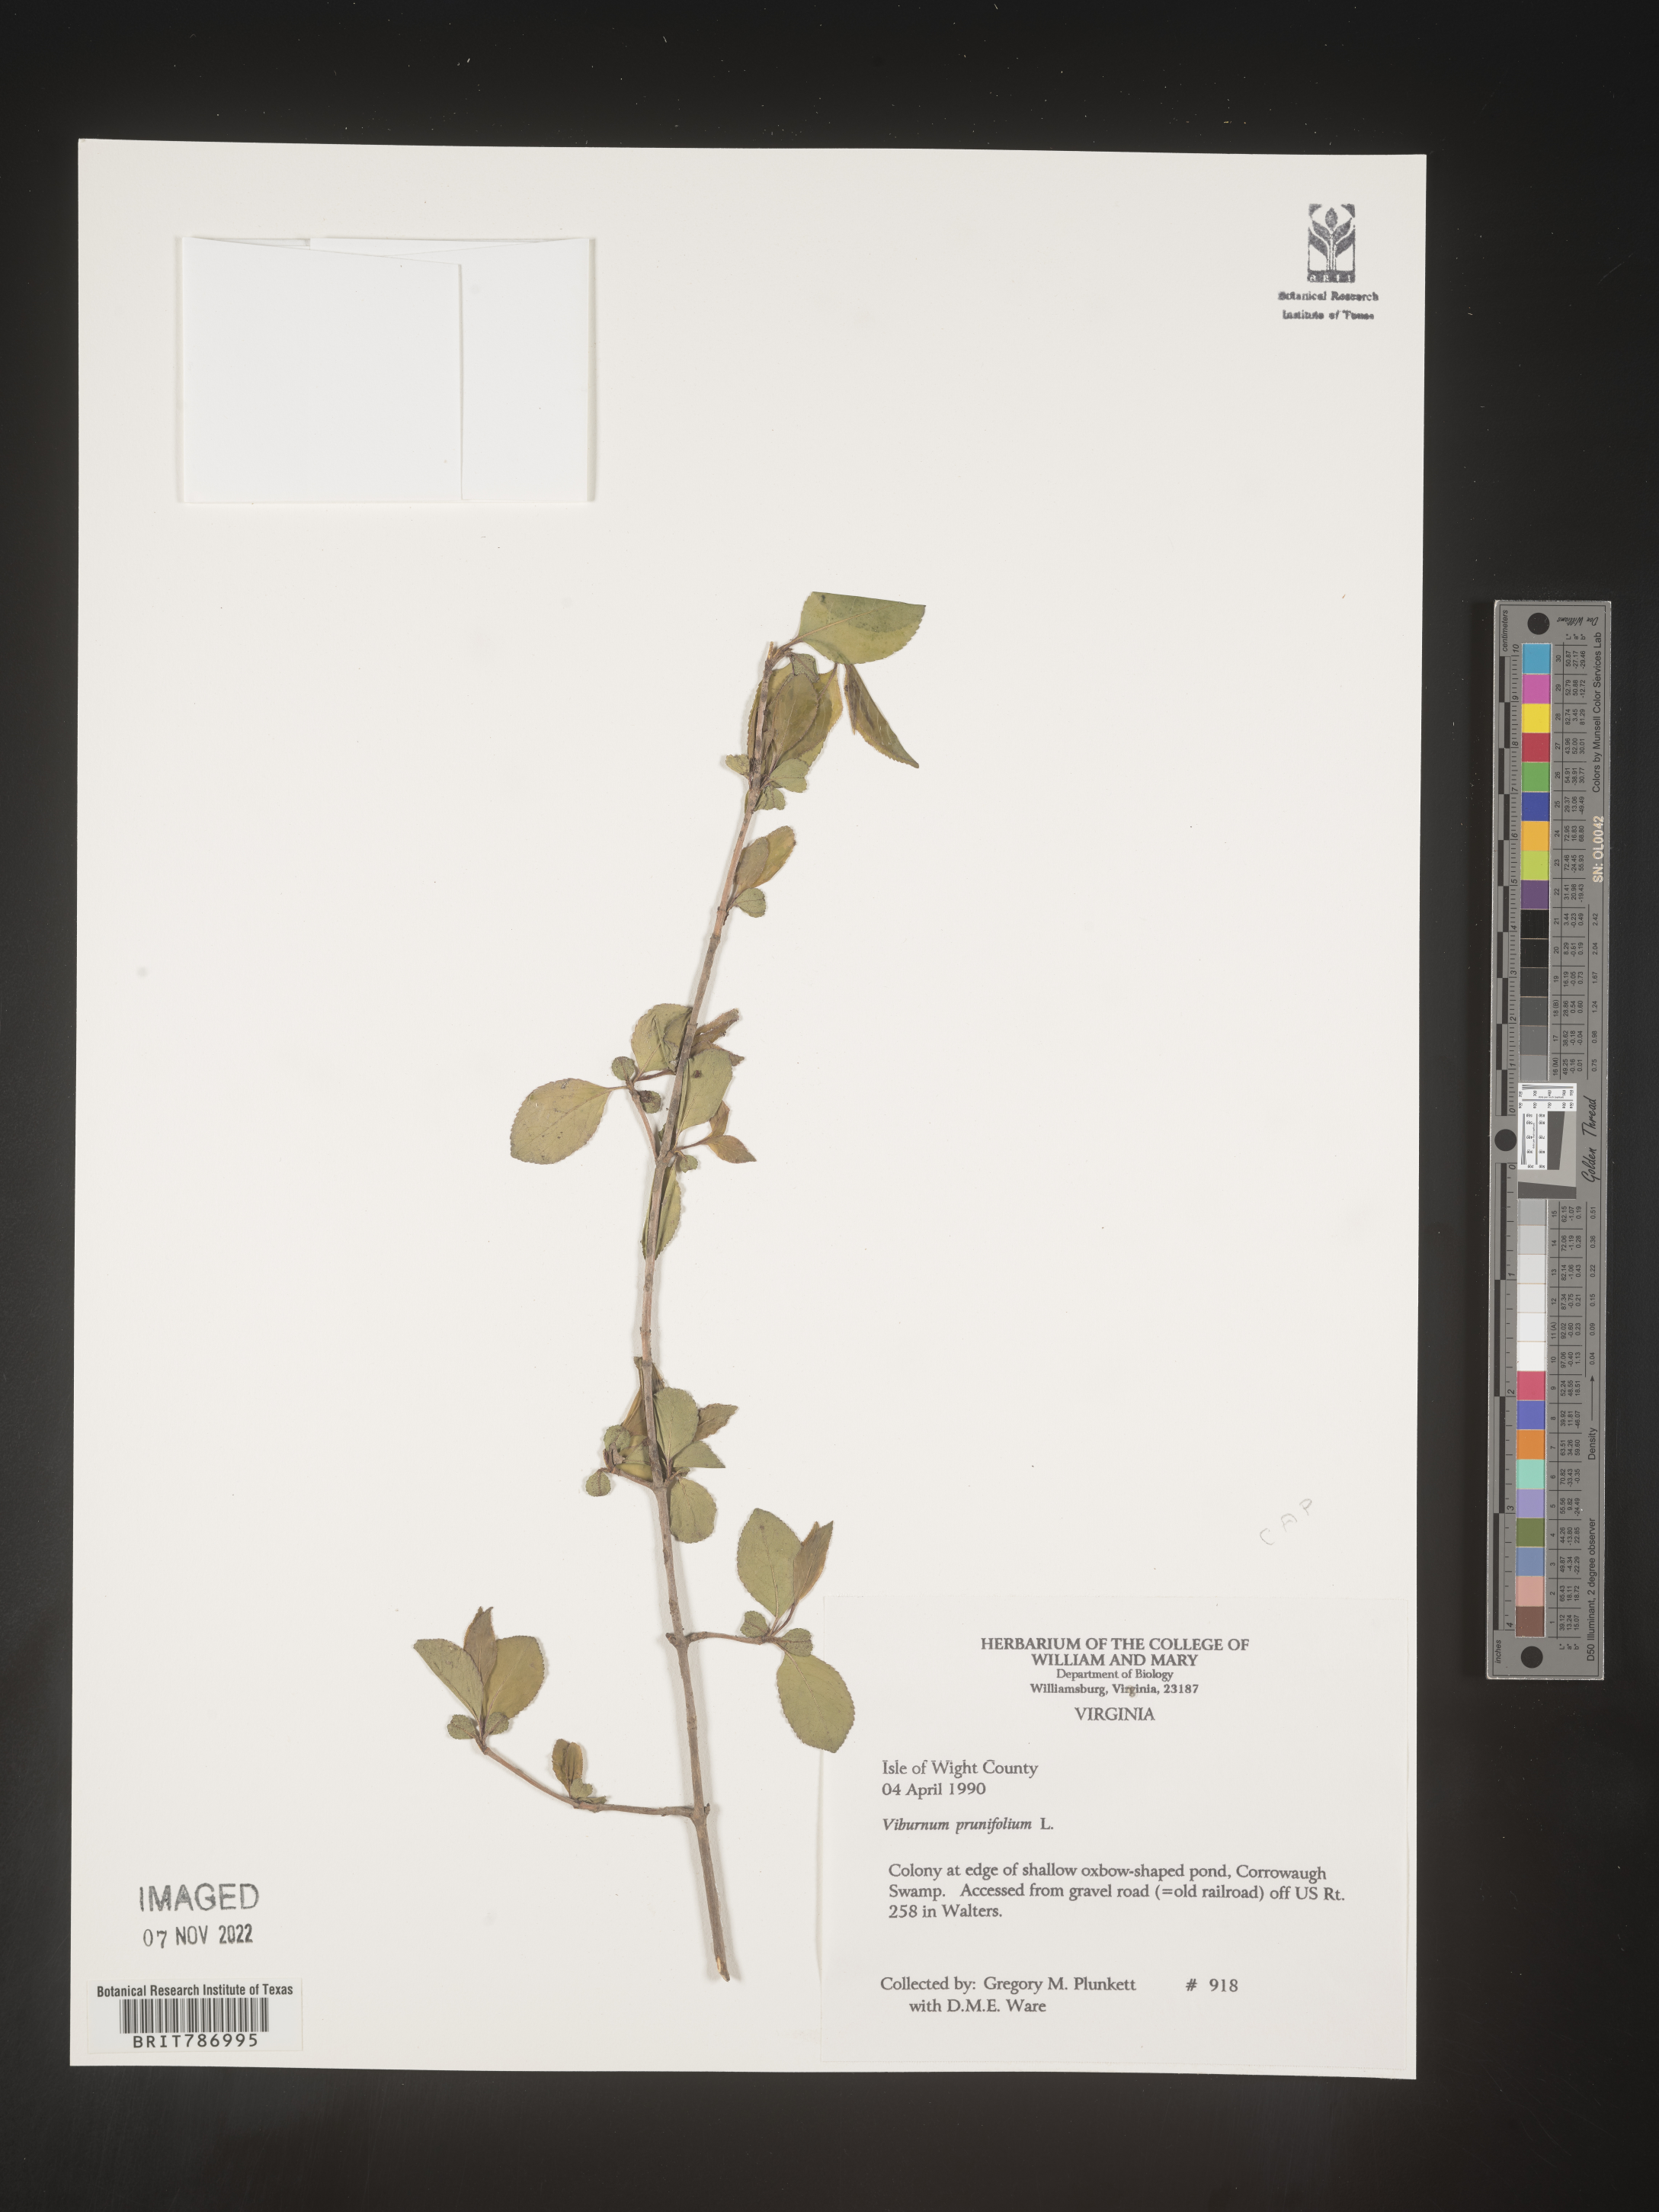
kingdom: Plantae
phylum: Tracheophyta
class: Magnoliopsida
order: Dipsacales
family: Viburnaceae
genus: Viburnum
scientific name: Viburnum prunifolium
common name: Black haw
